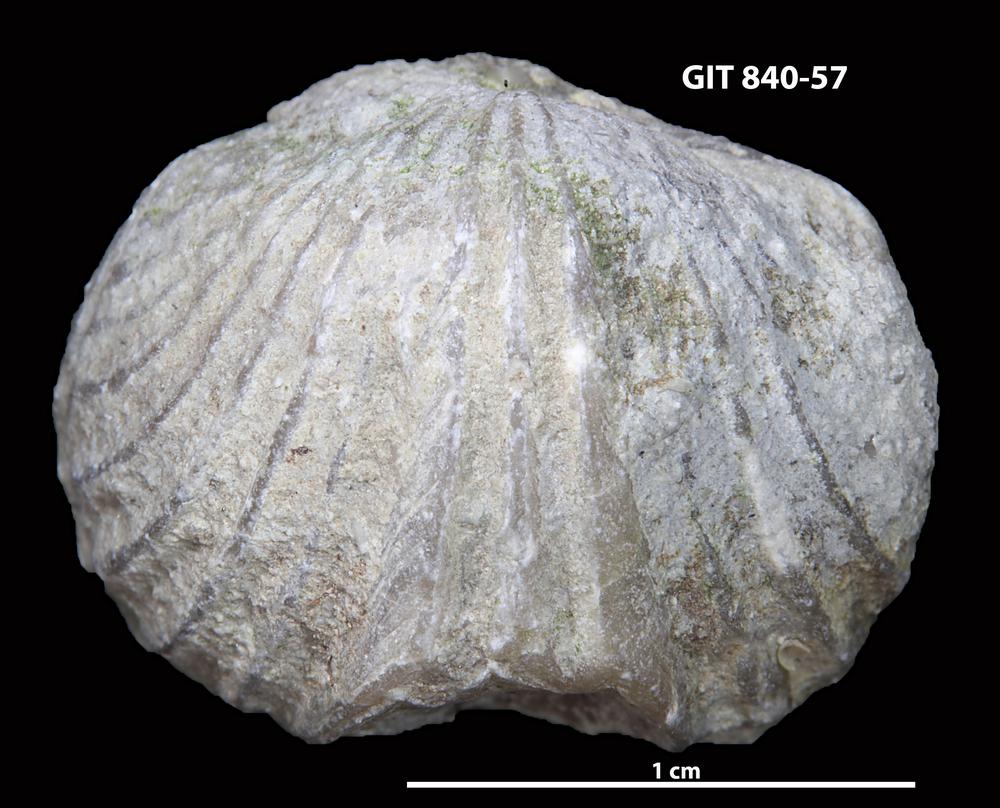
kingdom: Animalia
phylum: Brachiopoda
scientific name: Brachiopoda
